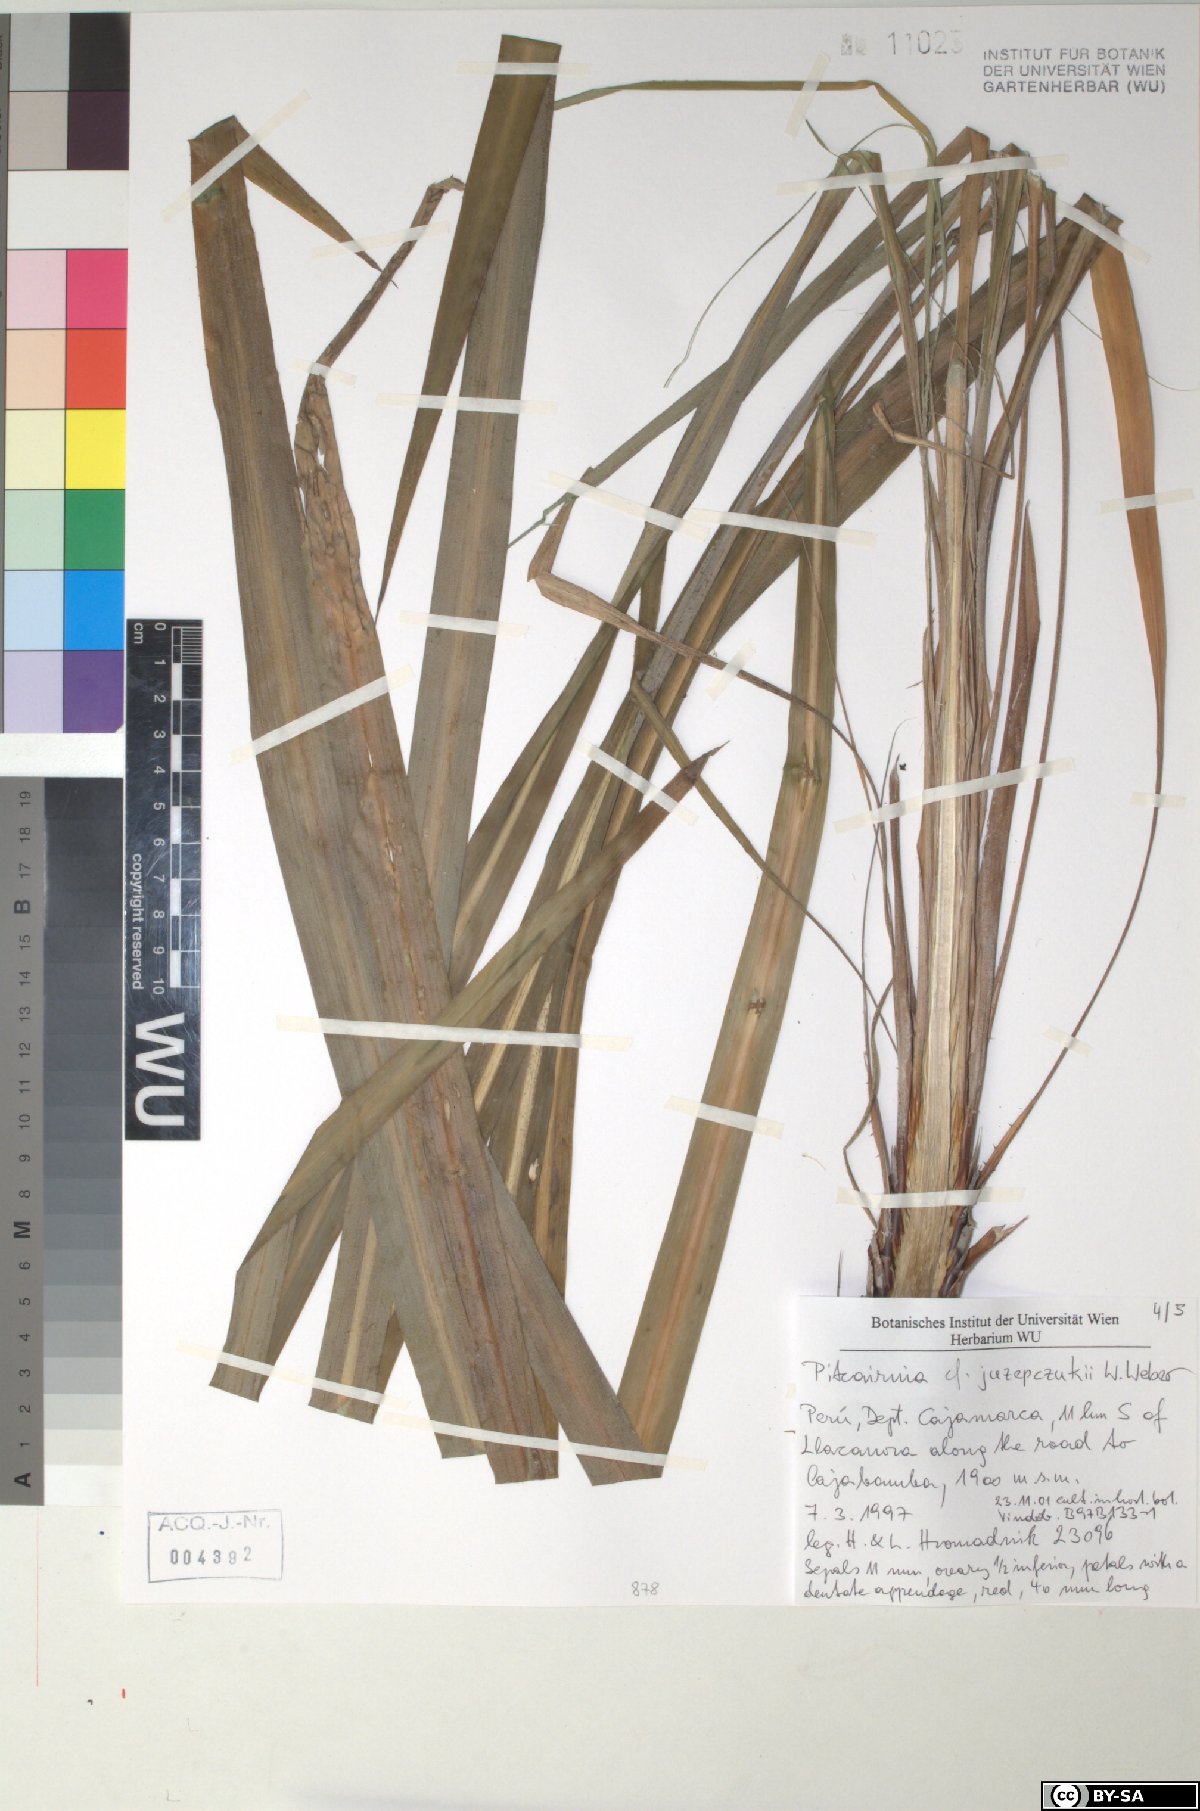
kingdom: Plantae
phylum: Tracheophyta
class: Liliopsida
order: Poales
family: Bromeliaceae
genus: Pitcairnia
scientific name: Pitcairnia juzepczukii
